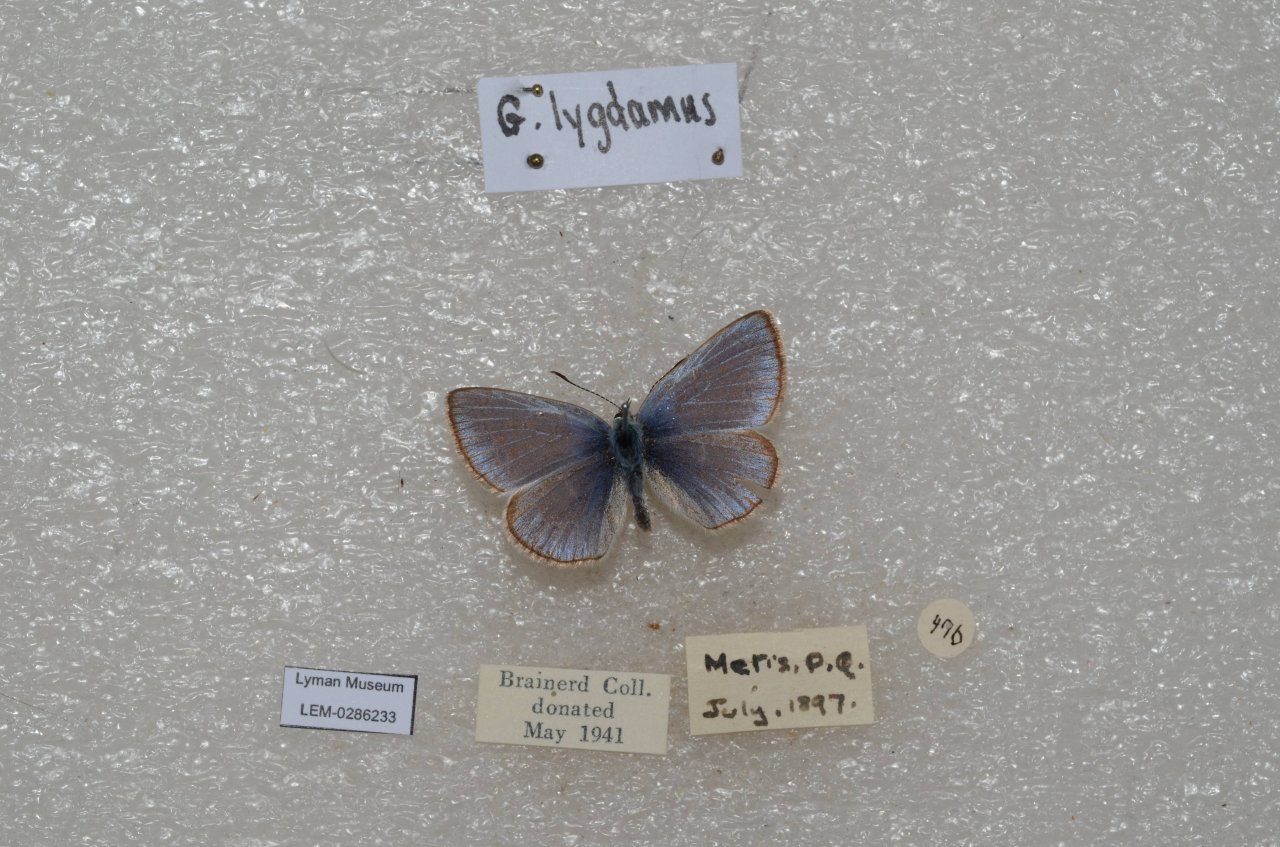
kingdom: Animalia
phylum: Arthropoda
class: Insecta
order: Lepidoptera
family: Lycaenidae
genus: Glaucopsyche
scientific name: Glaucopsyche lygdamus
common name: Silvery Blue
